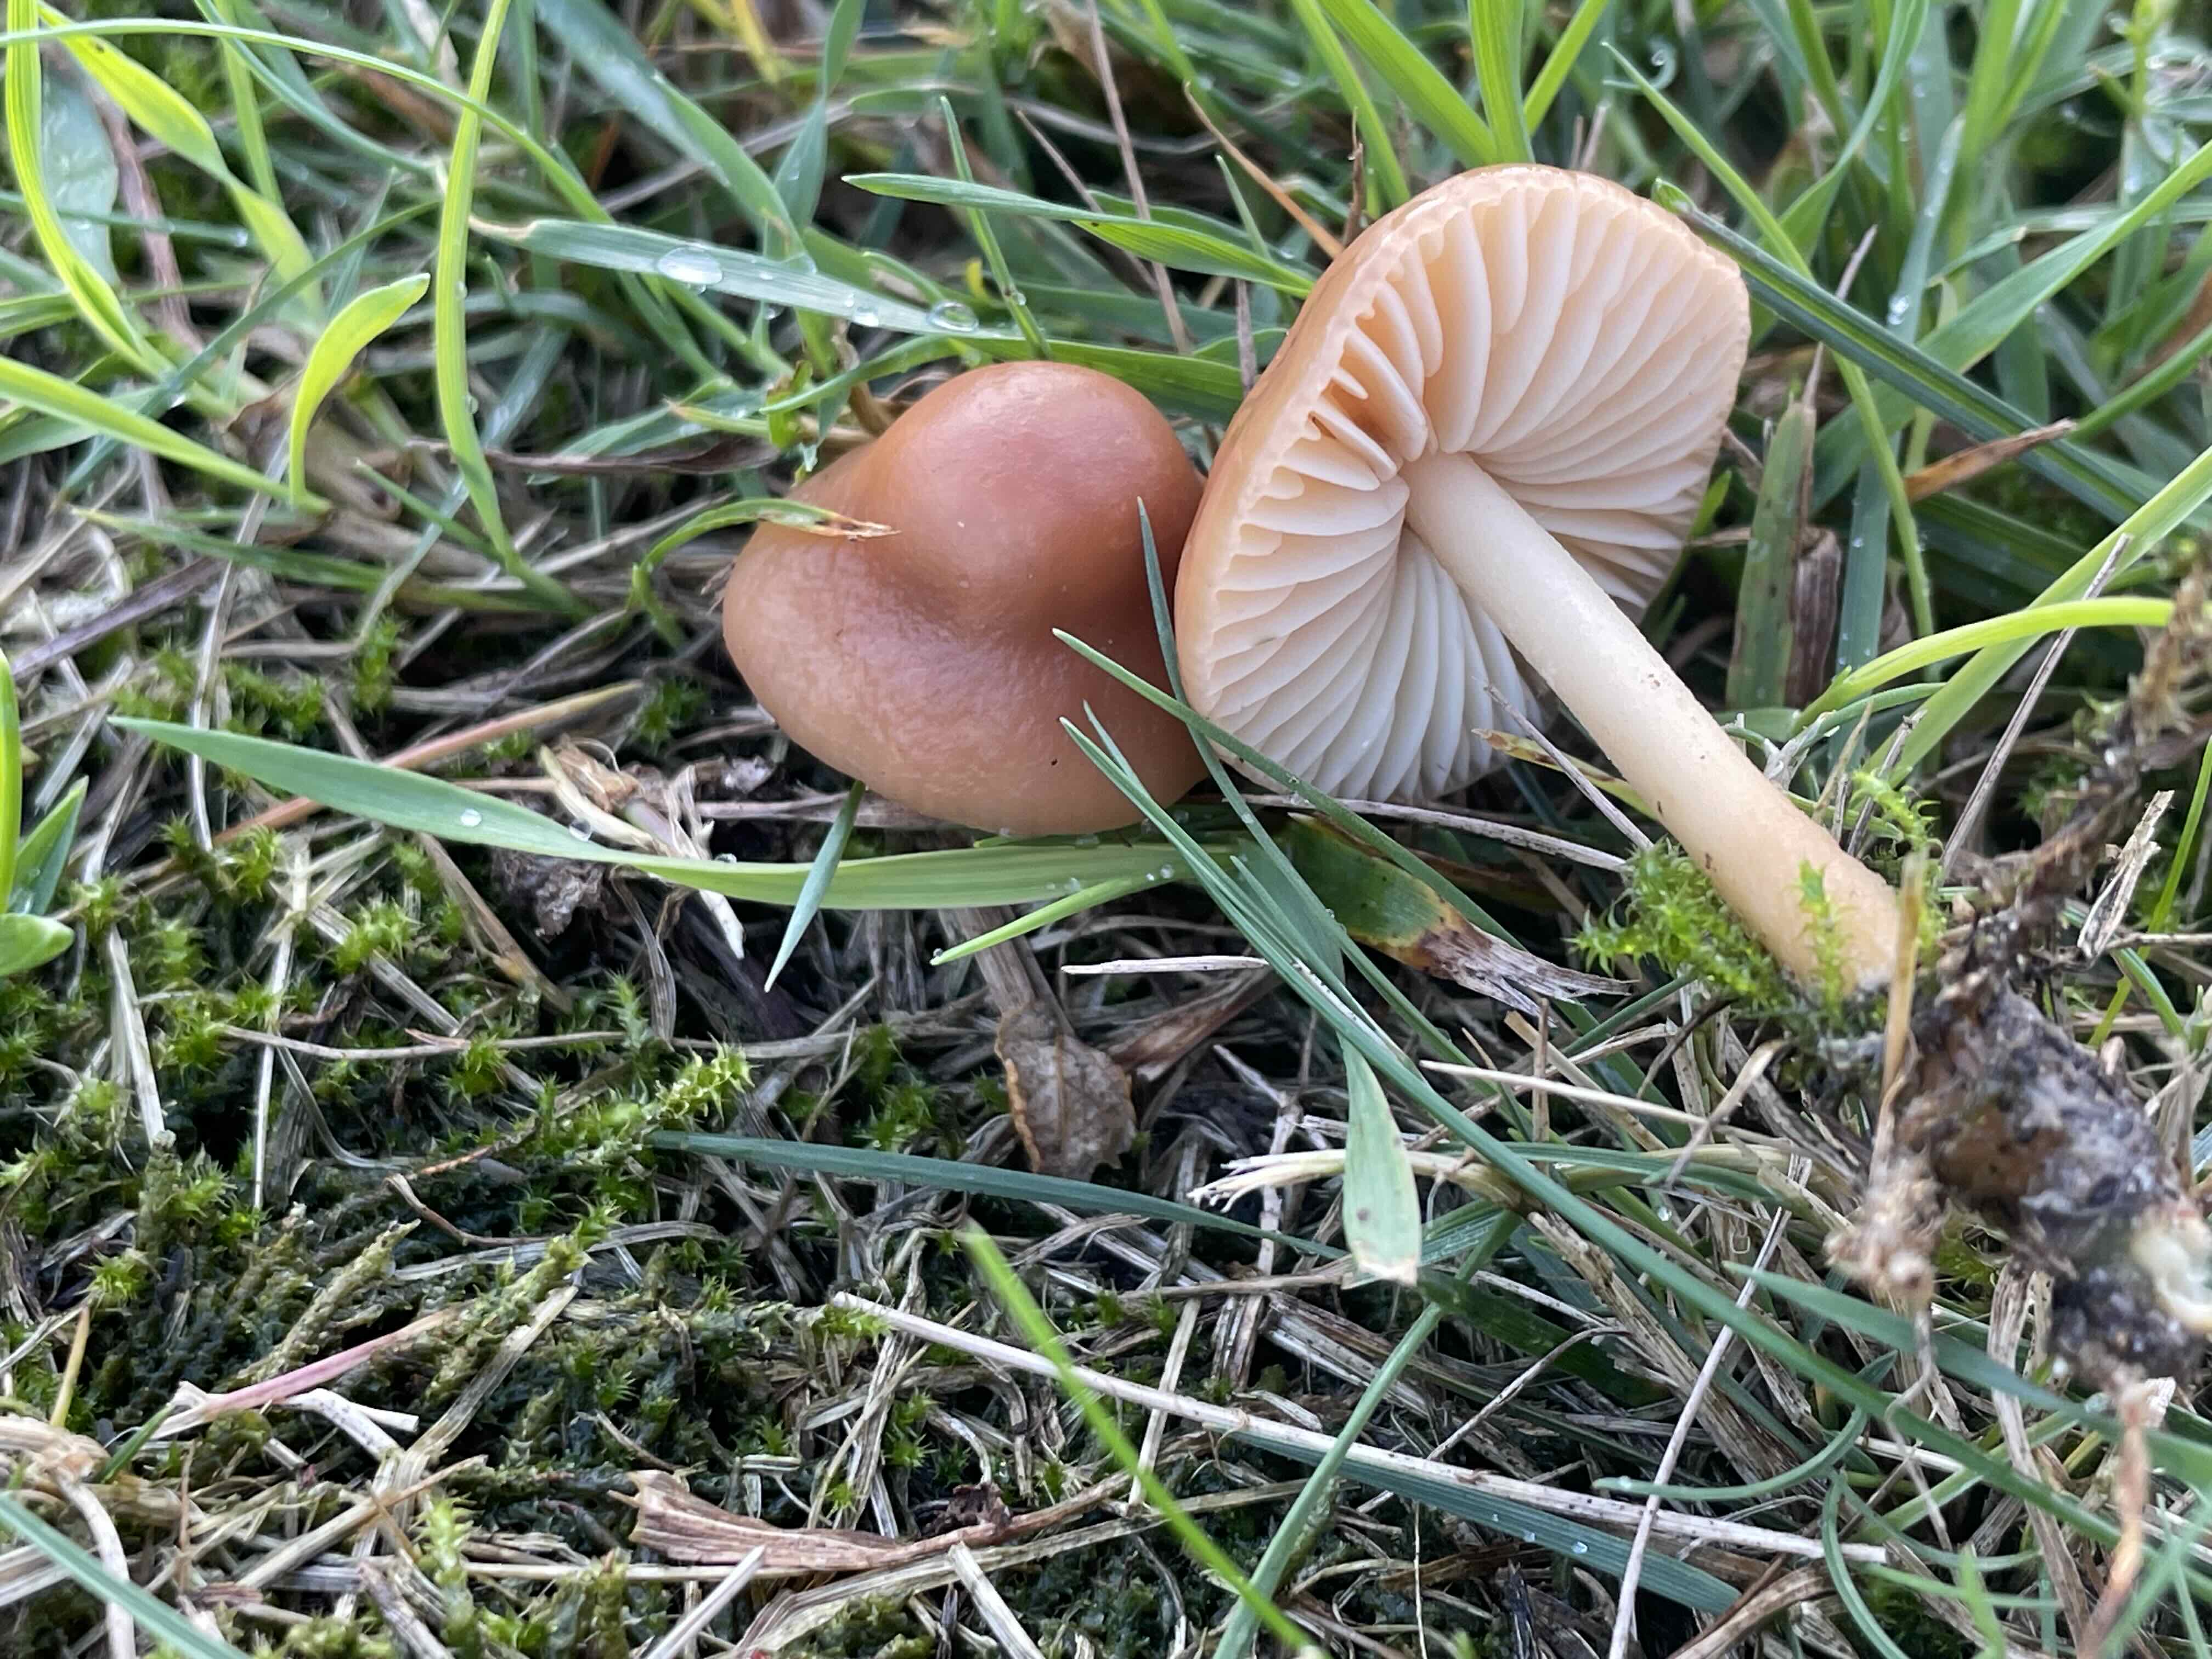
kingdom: Fungi
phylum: Basidiomycota
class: Agaricomycetes
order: Agaricales
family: Marasmiaceae
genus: Marasmius
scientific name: Marasmius oreades
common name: elledans-bruskhat
